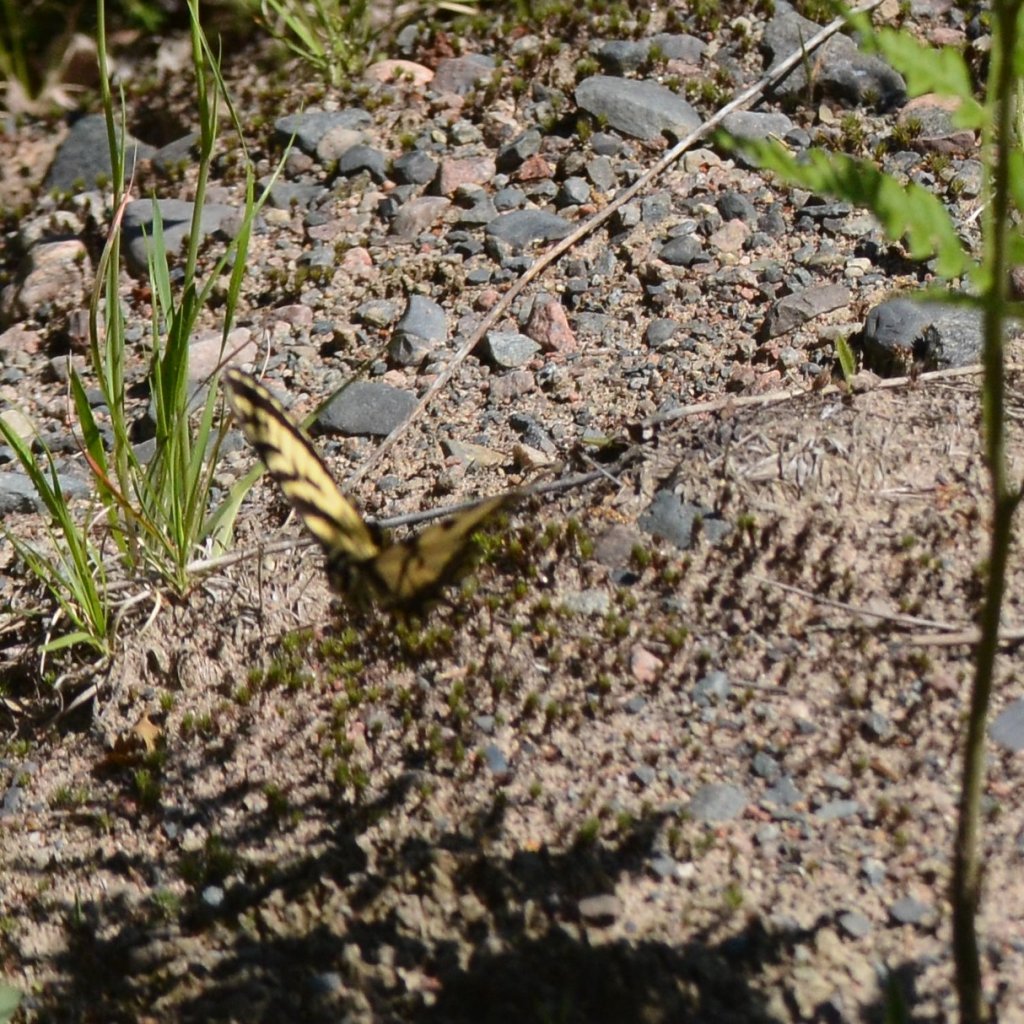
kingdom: Animalia
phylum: Arthropoda
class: Insecta
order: Lepidoptera
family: Papilionidae
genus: Pterourus
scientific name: Pterourus canadensis
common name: Canadian Tiger Swallowtail
